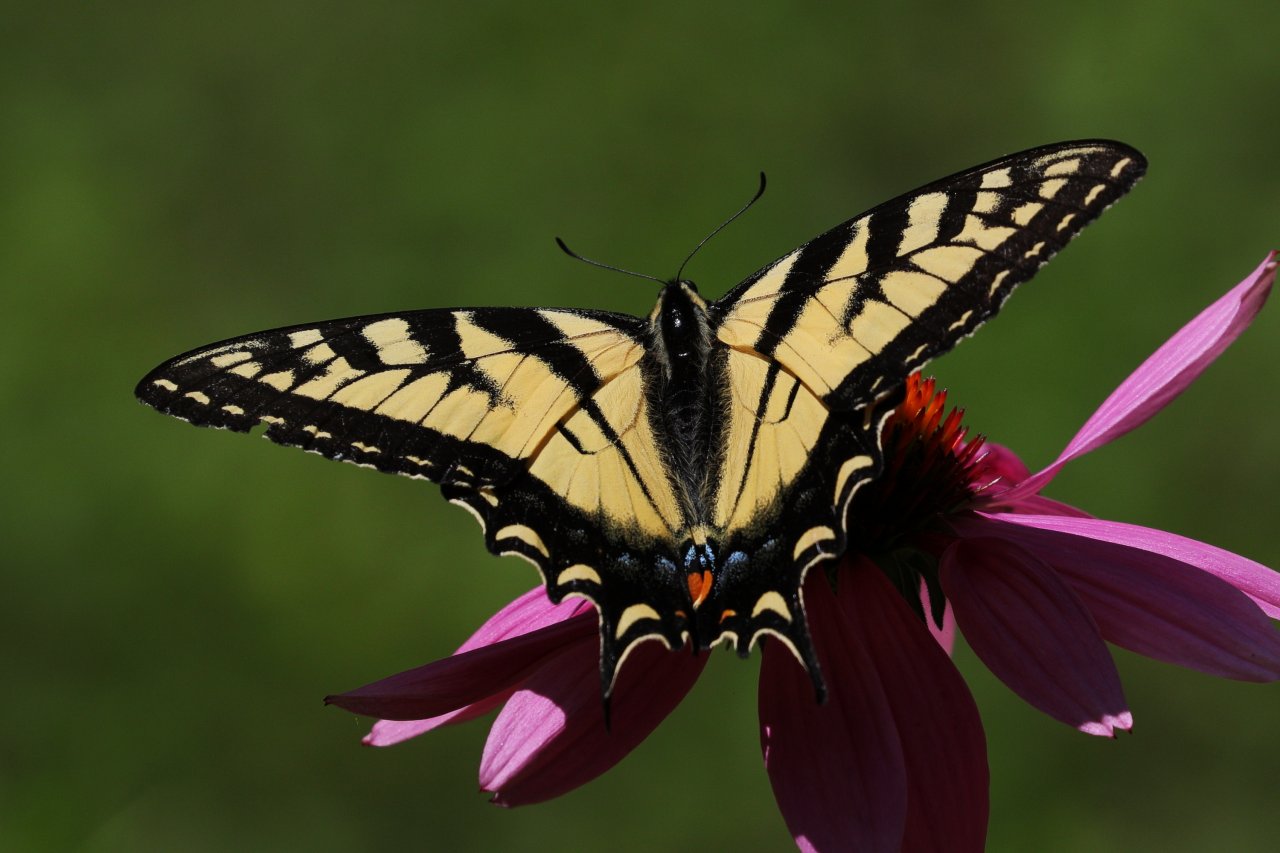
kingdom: Animalia
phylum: Arthropoda
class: Insecta
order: Lepidoptera
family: Papilionidae
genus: Pterourus
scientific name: Pterourus glaucus
